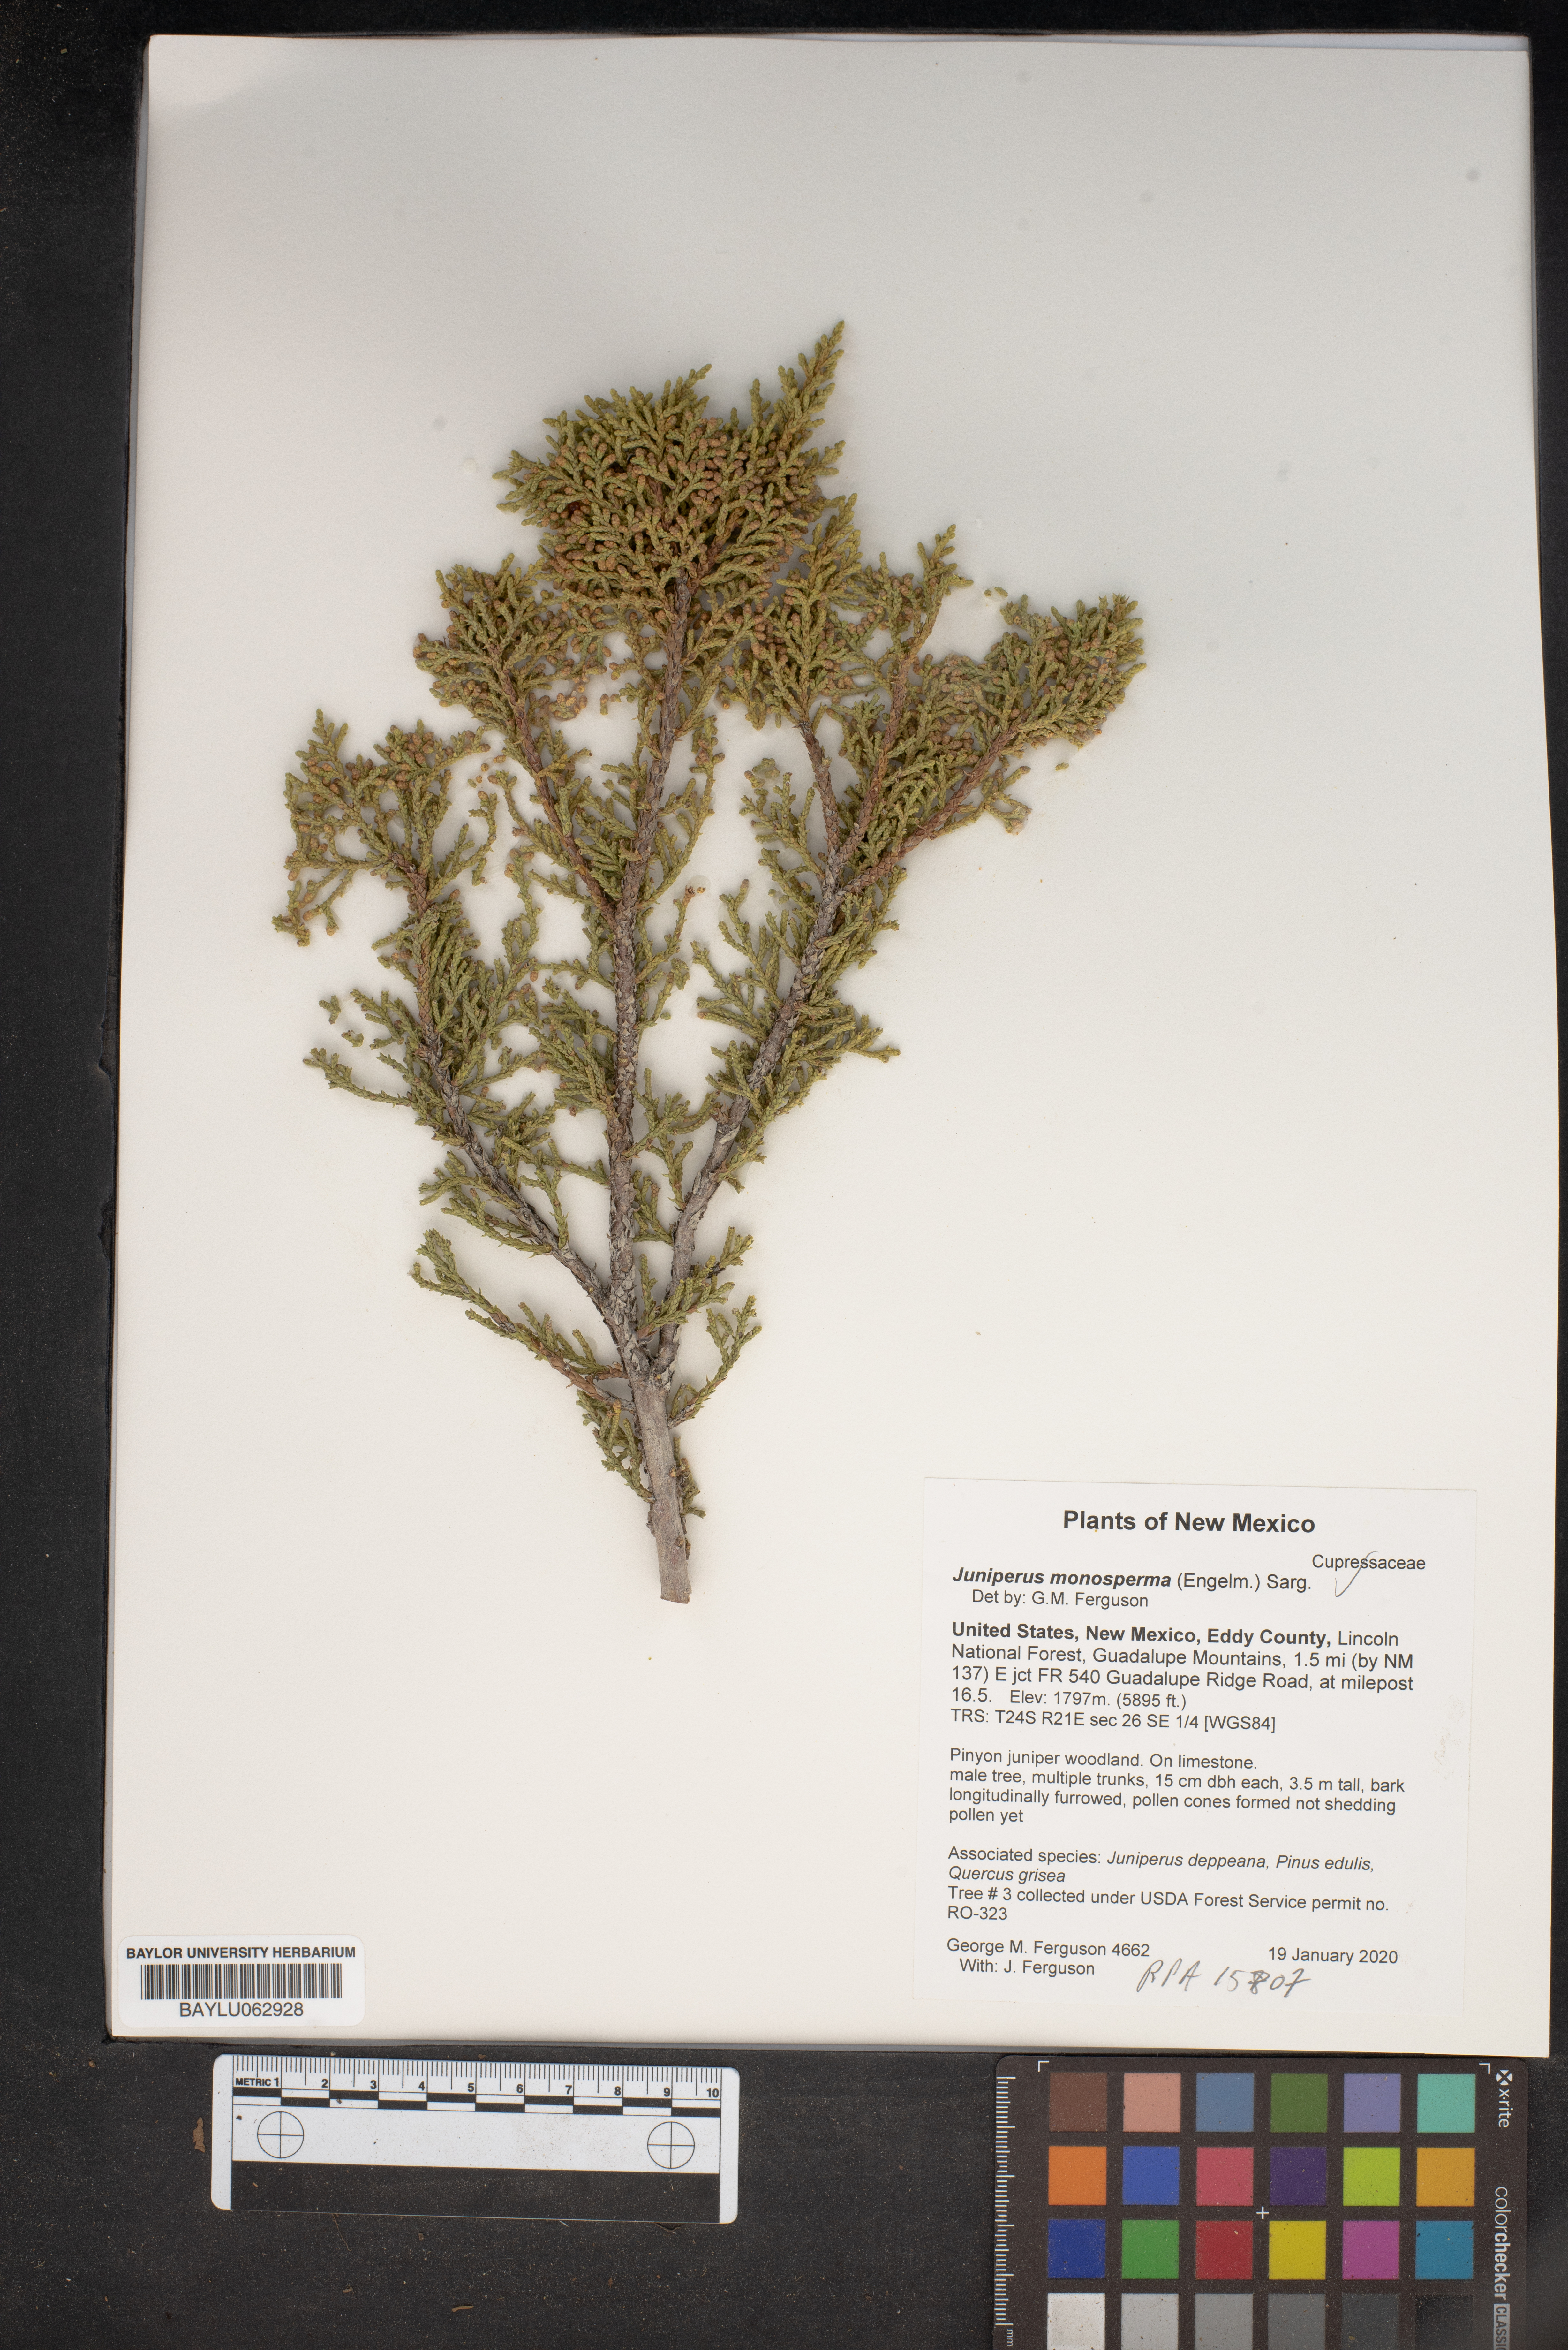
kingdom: Plantae
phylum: Tracheophyta
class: Pinopsida
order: Pinales
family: Cupressaceae
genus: Juniperus
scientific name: Juniperus monosperma
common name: One-seed juniper
